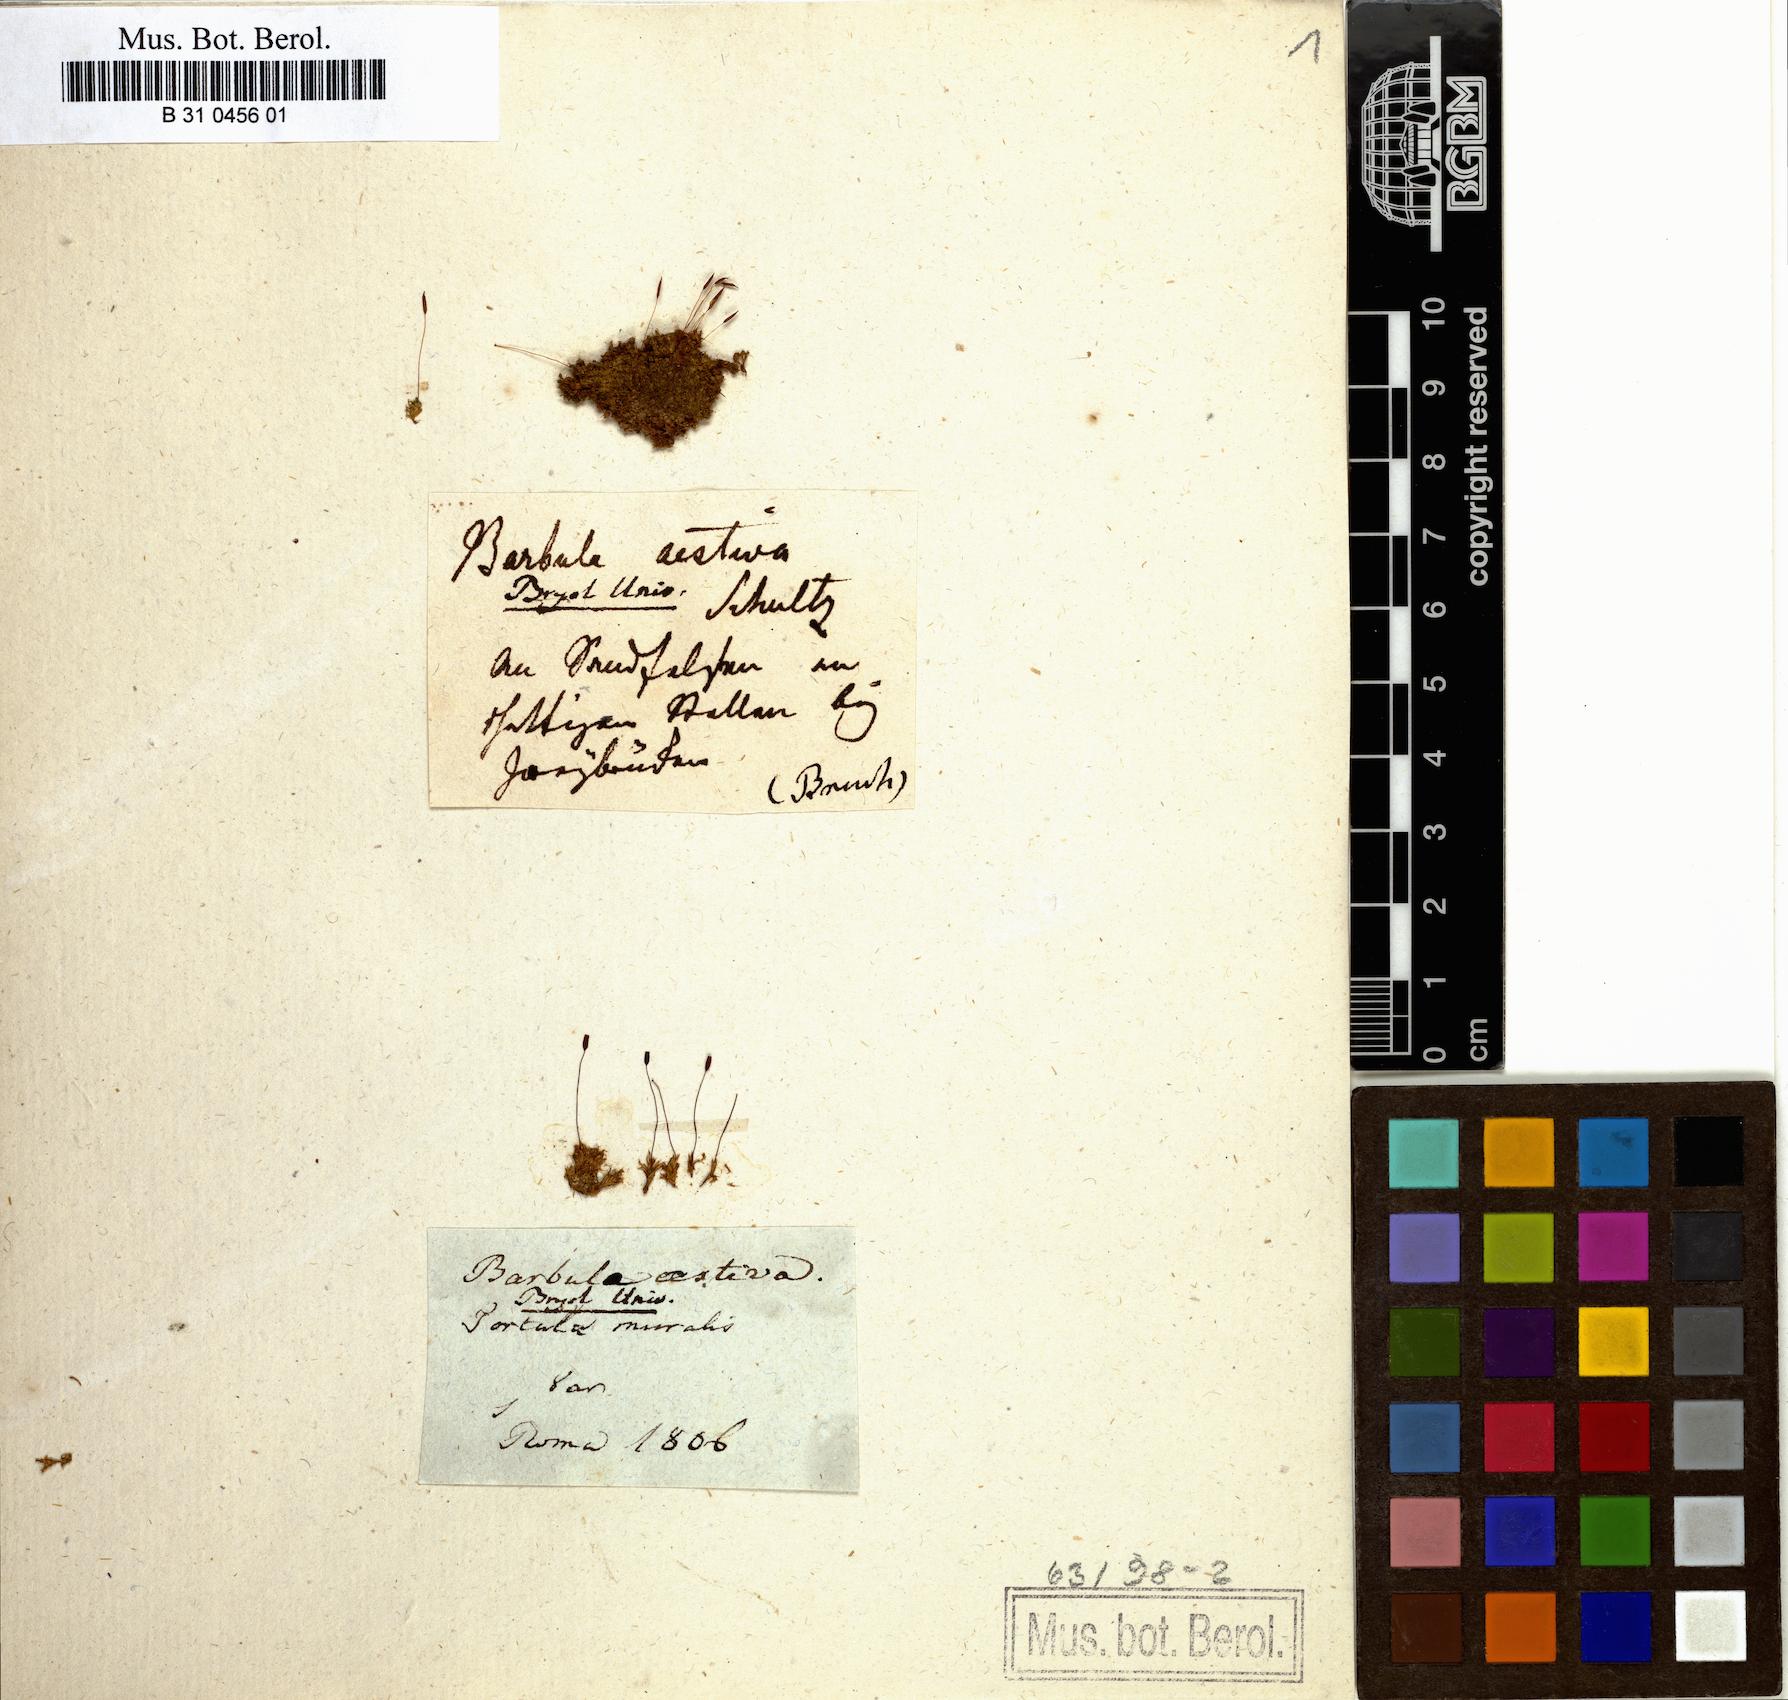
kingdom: Plantae
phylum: Bryophyta
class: Bryopsida
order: Pottiales
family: Pottiaceae
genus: Tortula
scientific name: Tortula muralis
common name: Wall screw-moss
